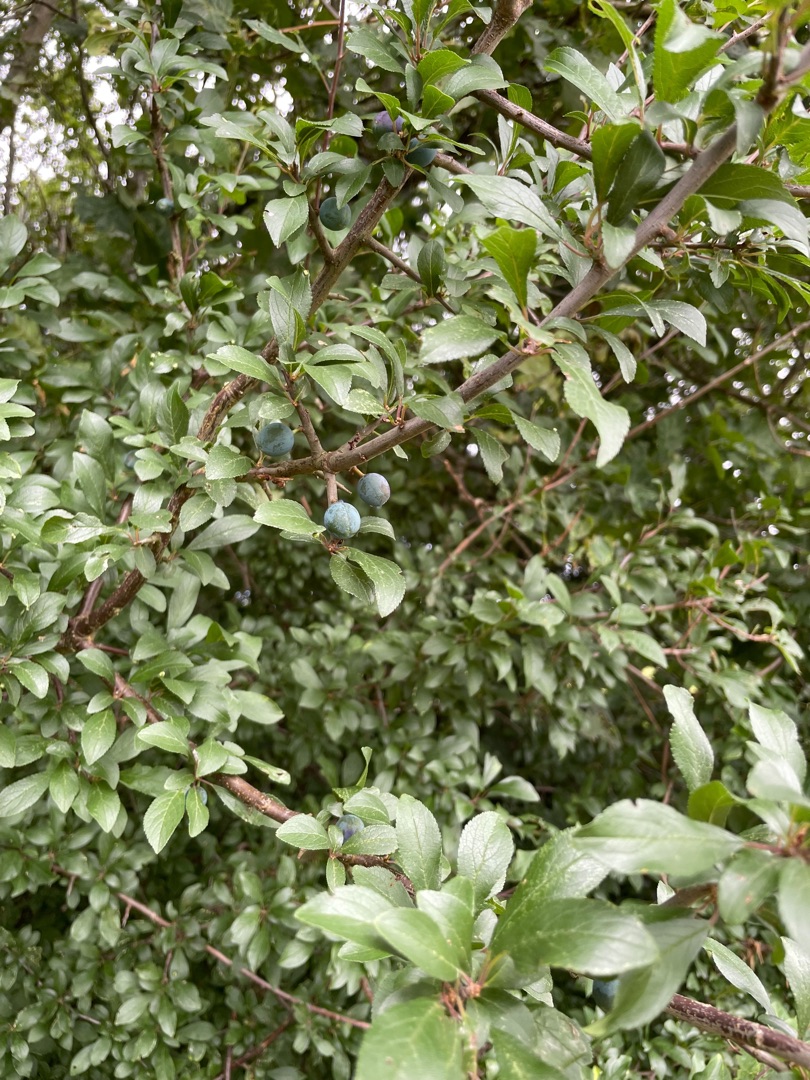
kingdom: Plantae
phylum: Tracheophyta
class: Magnoliopsida
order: Rosales
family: Rosaceae
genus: Prunus
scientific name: Prunus spinosa
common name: Slåen
